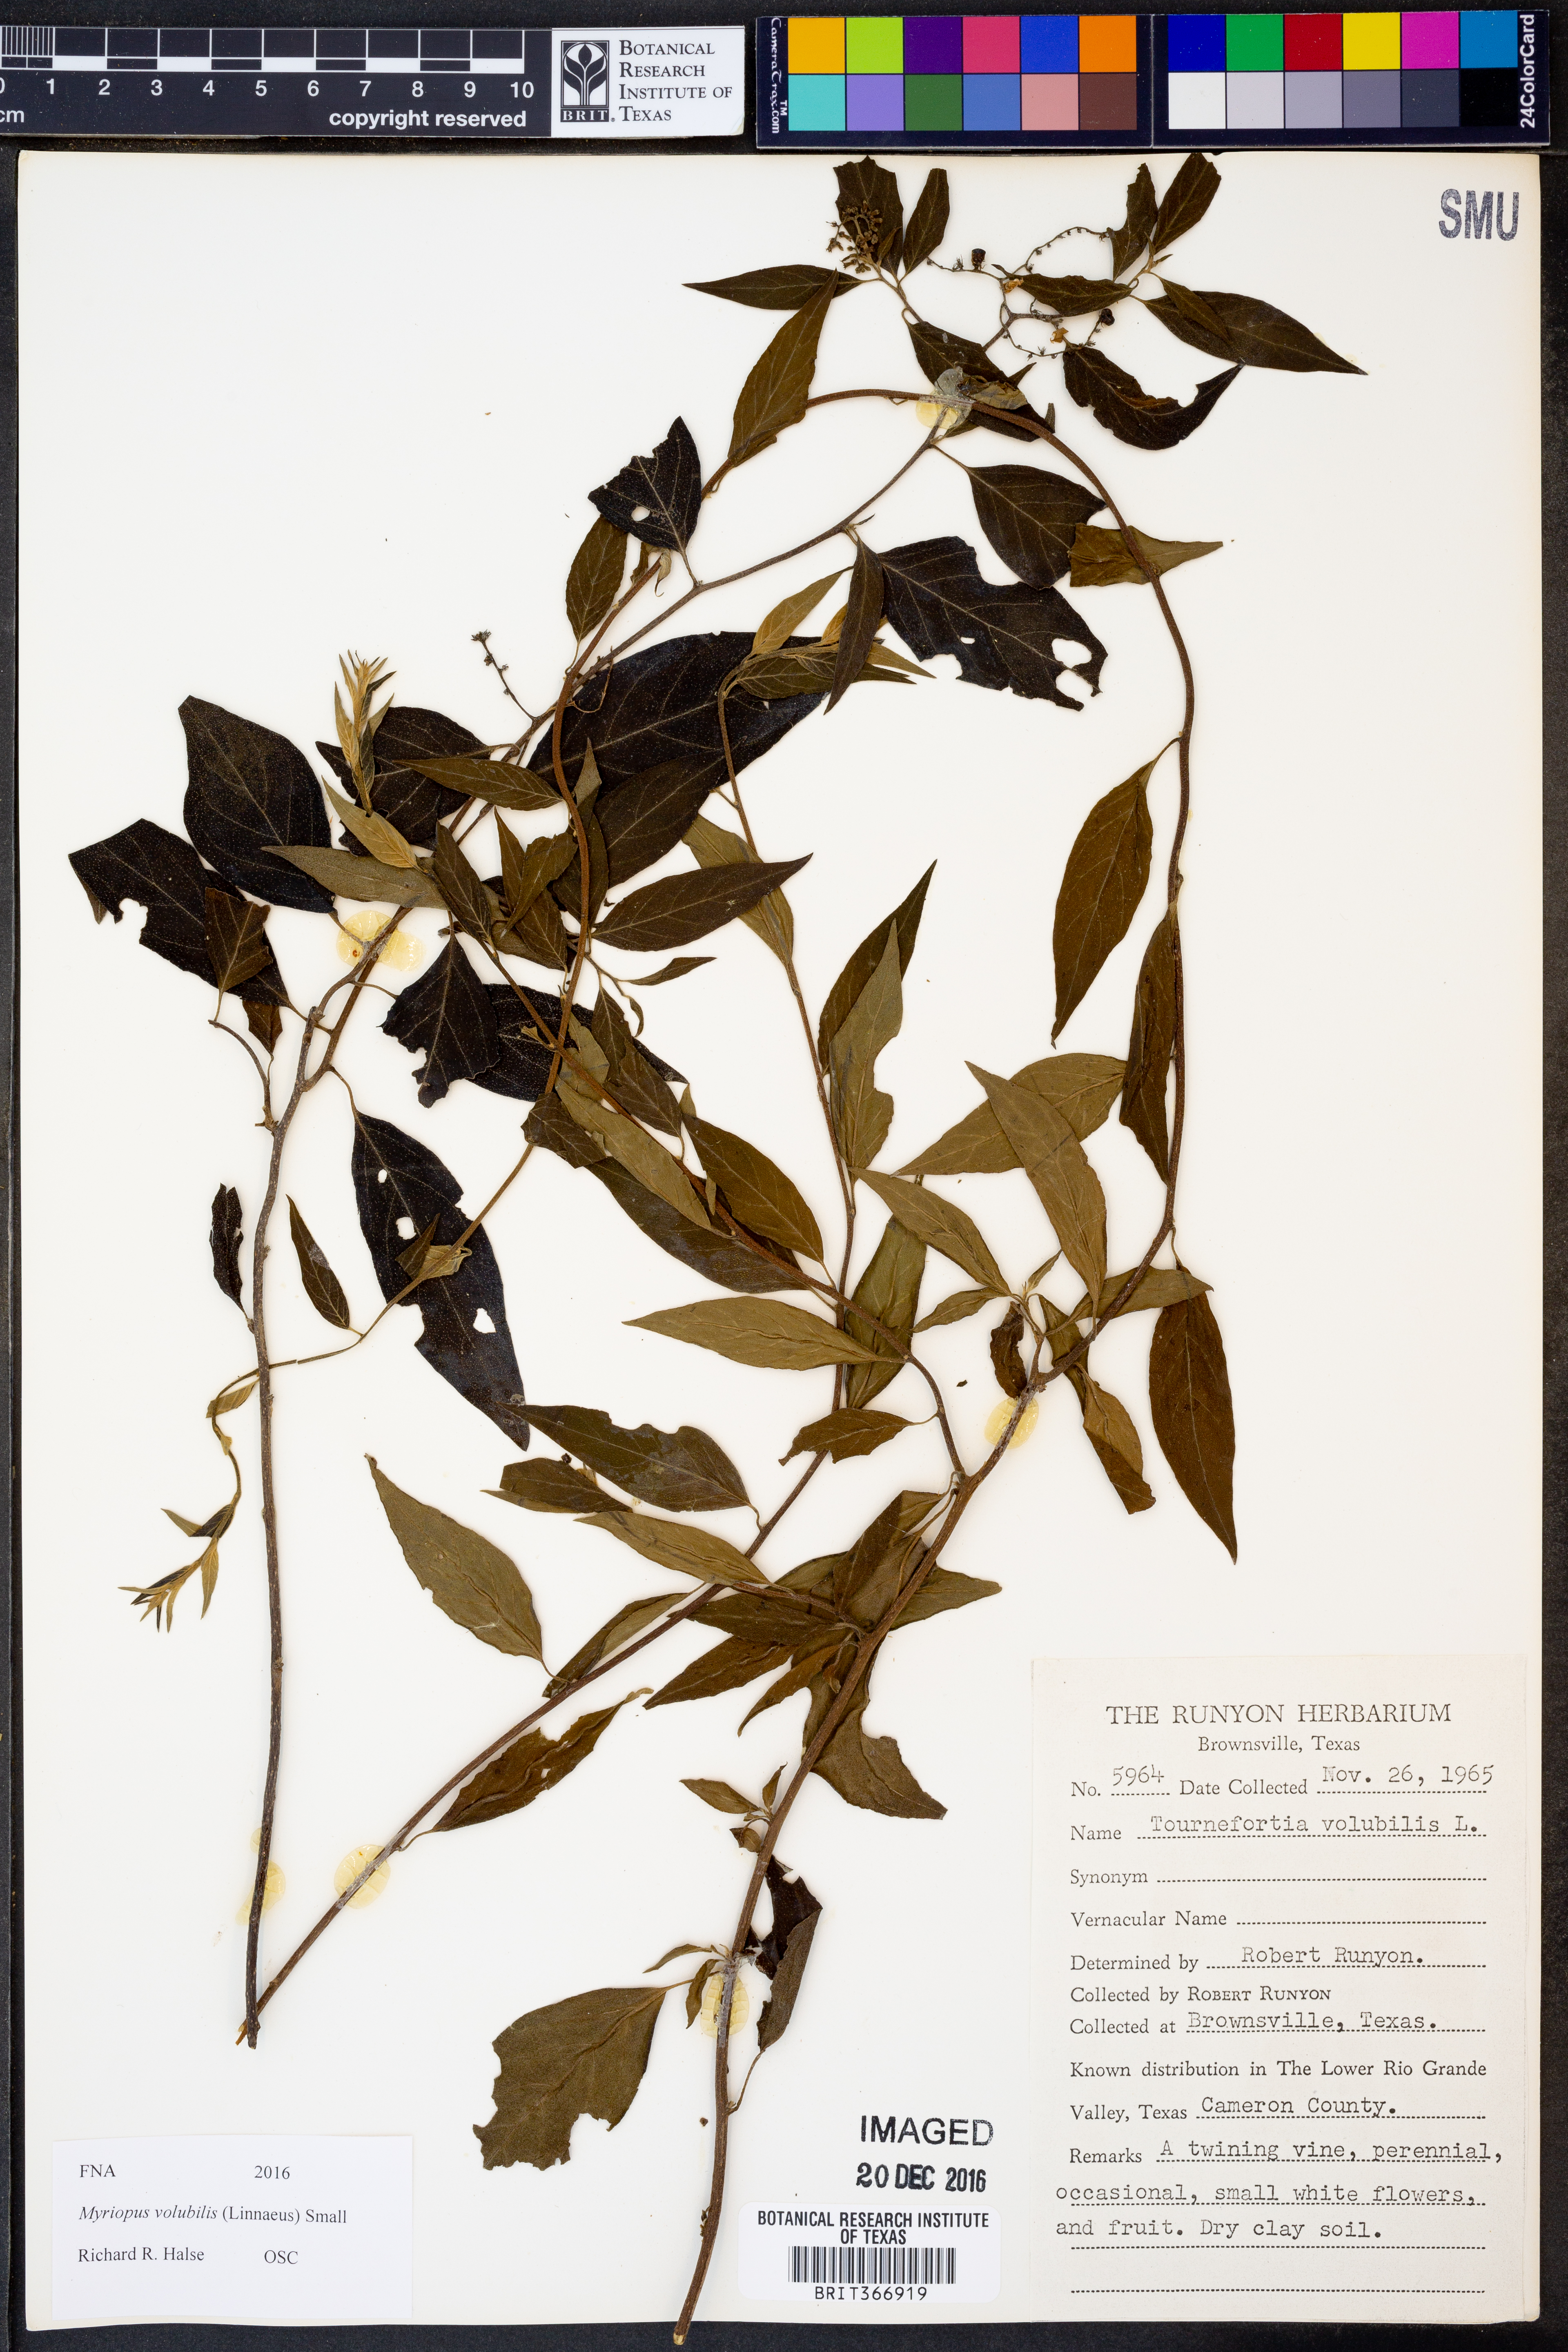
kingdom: Plantae
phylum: Tracheophyta
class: Magnoliopsida
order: Boraginales
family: Heliotropiaceae
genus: Myriopus
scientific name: Myriopus volubilis
